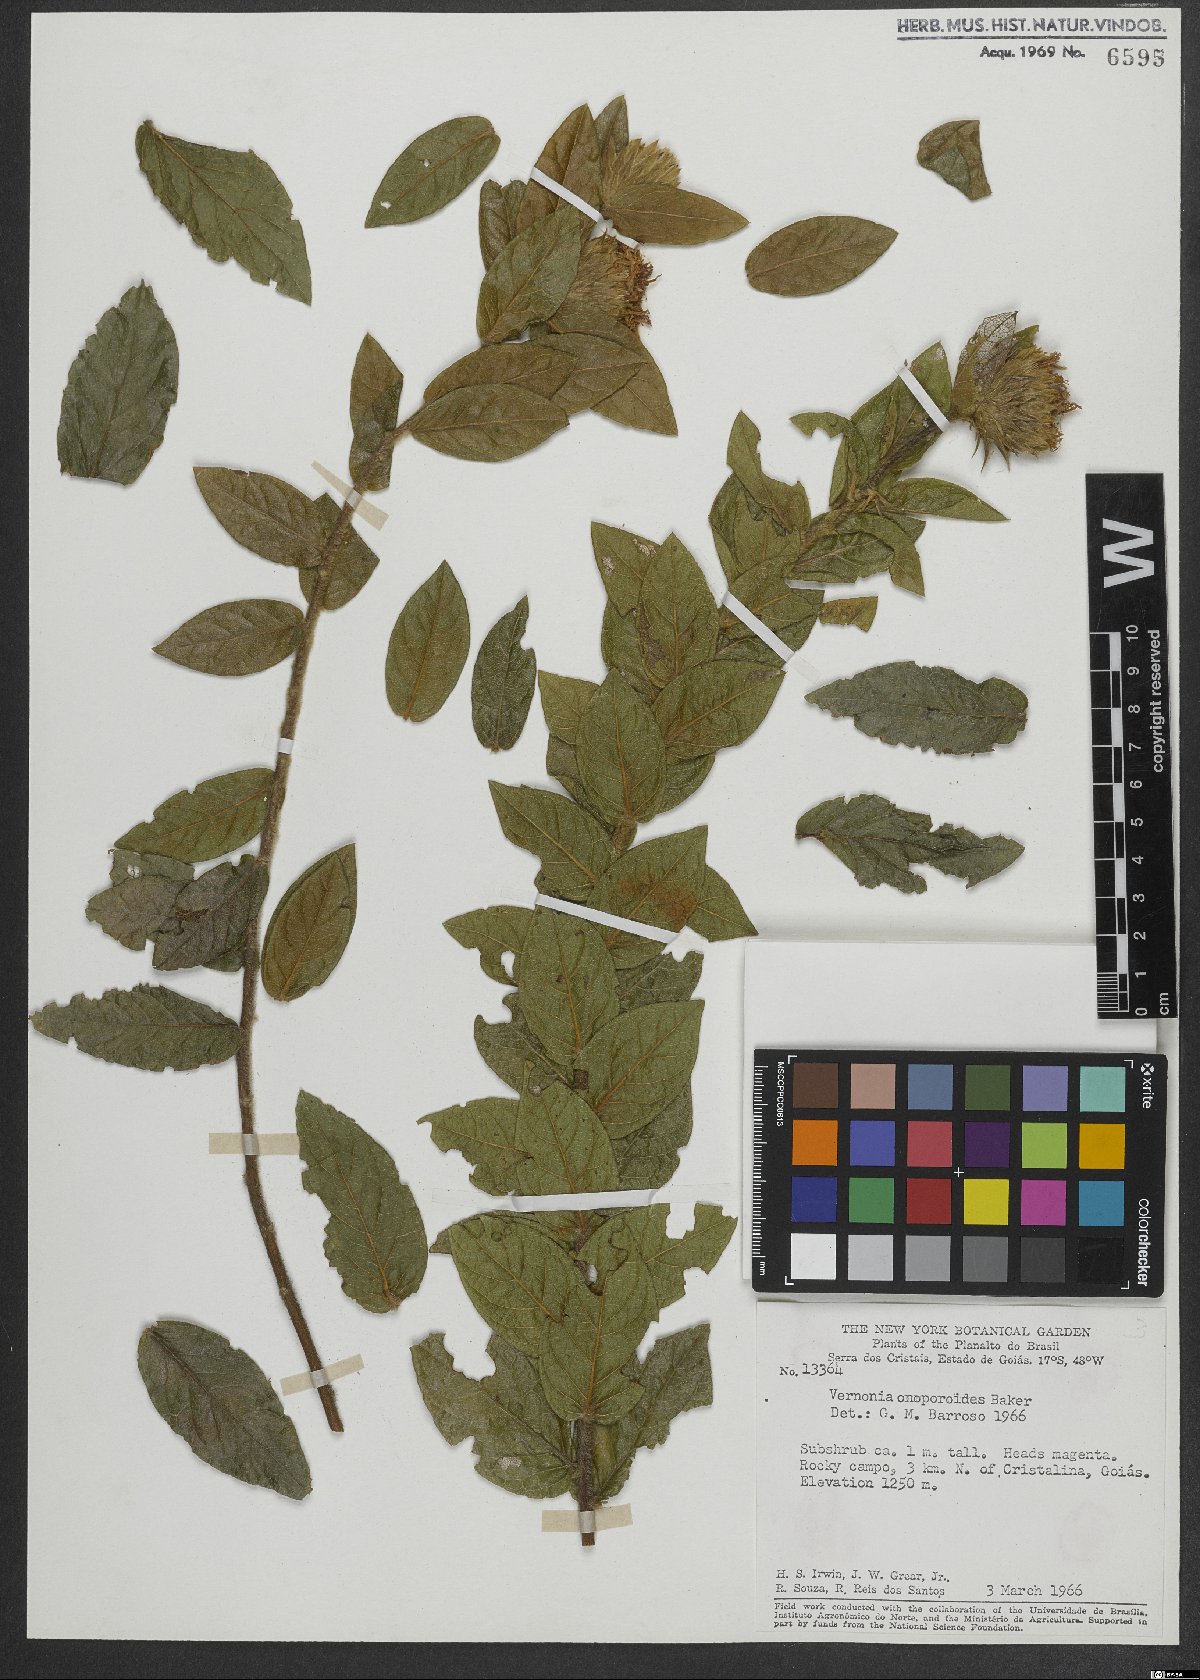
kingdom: Plantae
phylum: Tracheophyta
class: Magnoliopsida
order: Asterales
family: Asteraceae
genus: Lessingianthus
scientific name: Lessingianthus onopordioides
